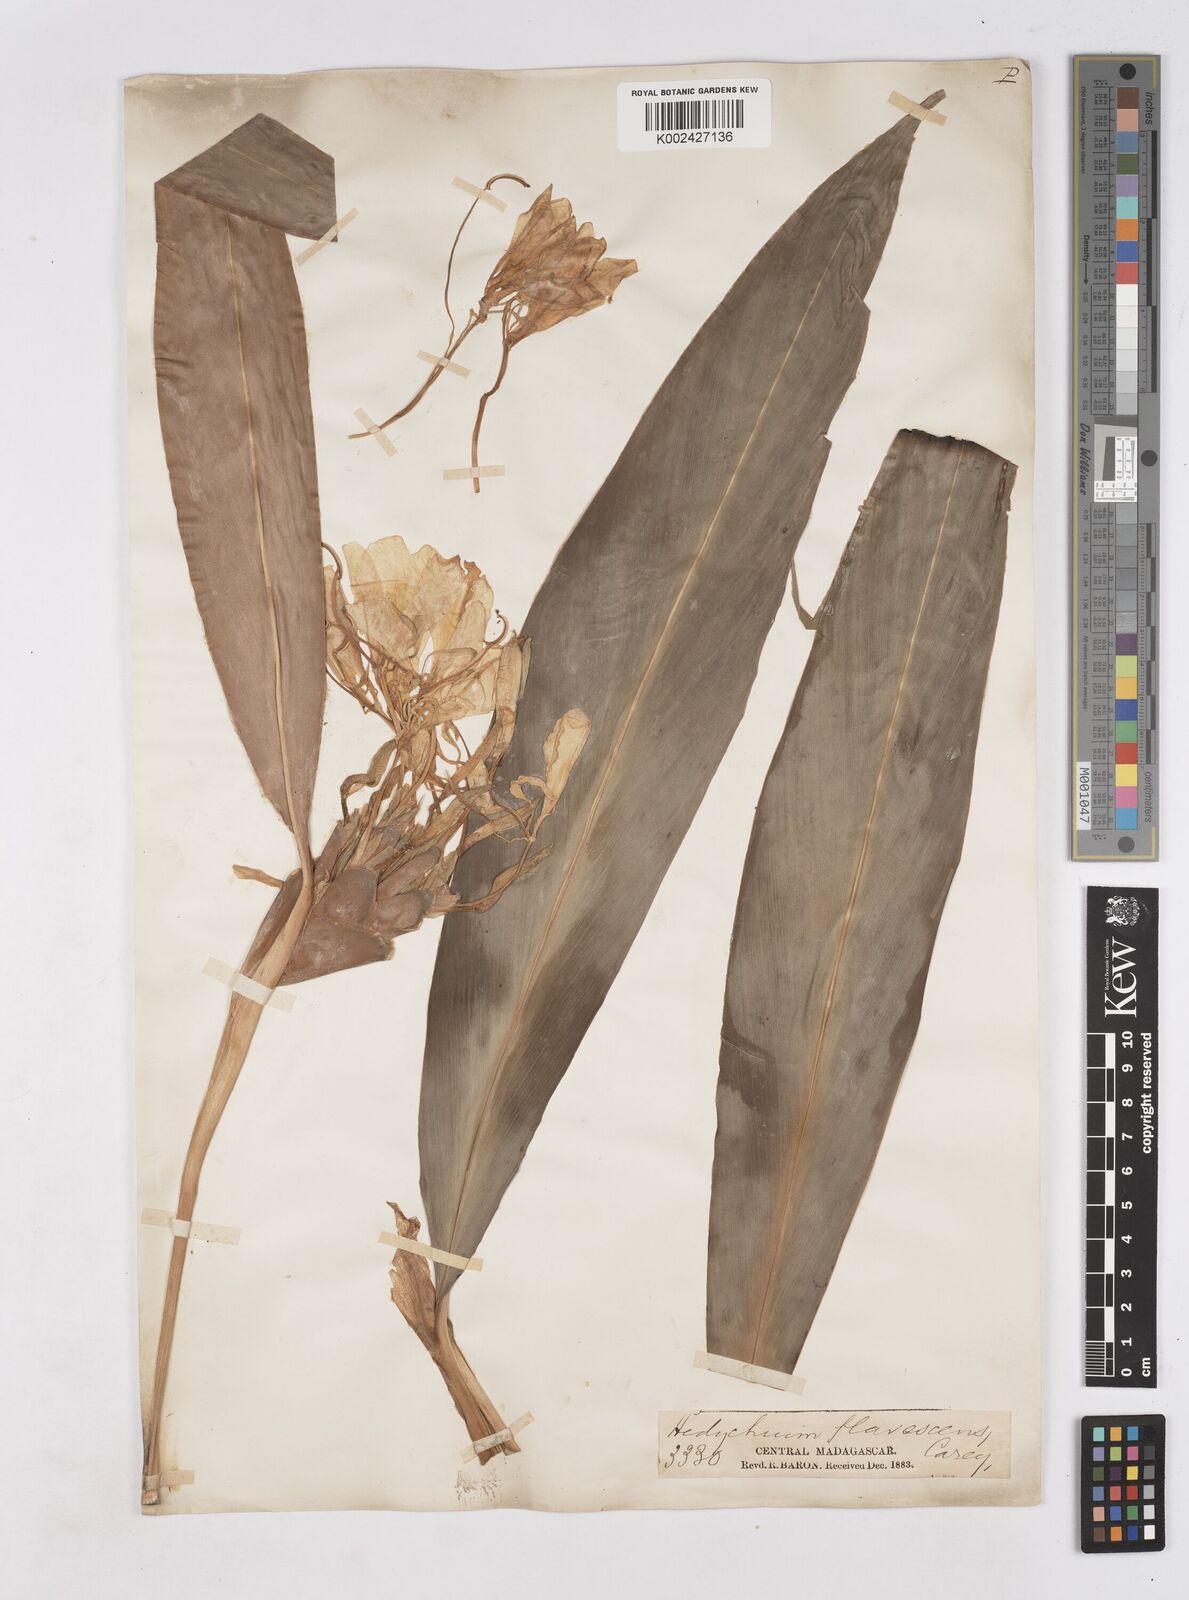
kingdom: Plantae
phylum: Tracheophyta
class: Liliopsida
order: Zingiberales
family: Zingiberaceae
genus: Hedychium
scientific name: Hedychium coronarium
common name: White garland-lily
